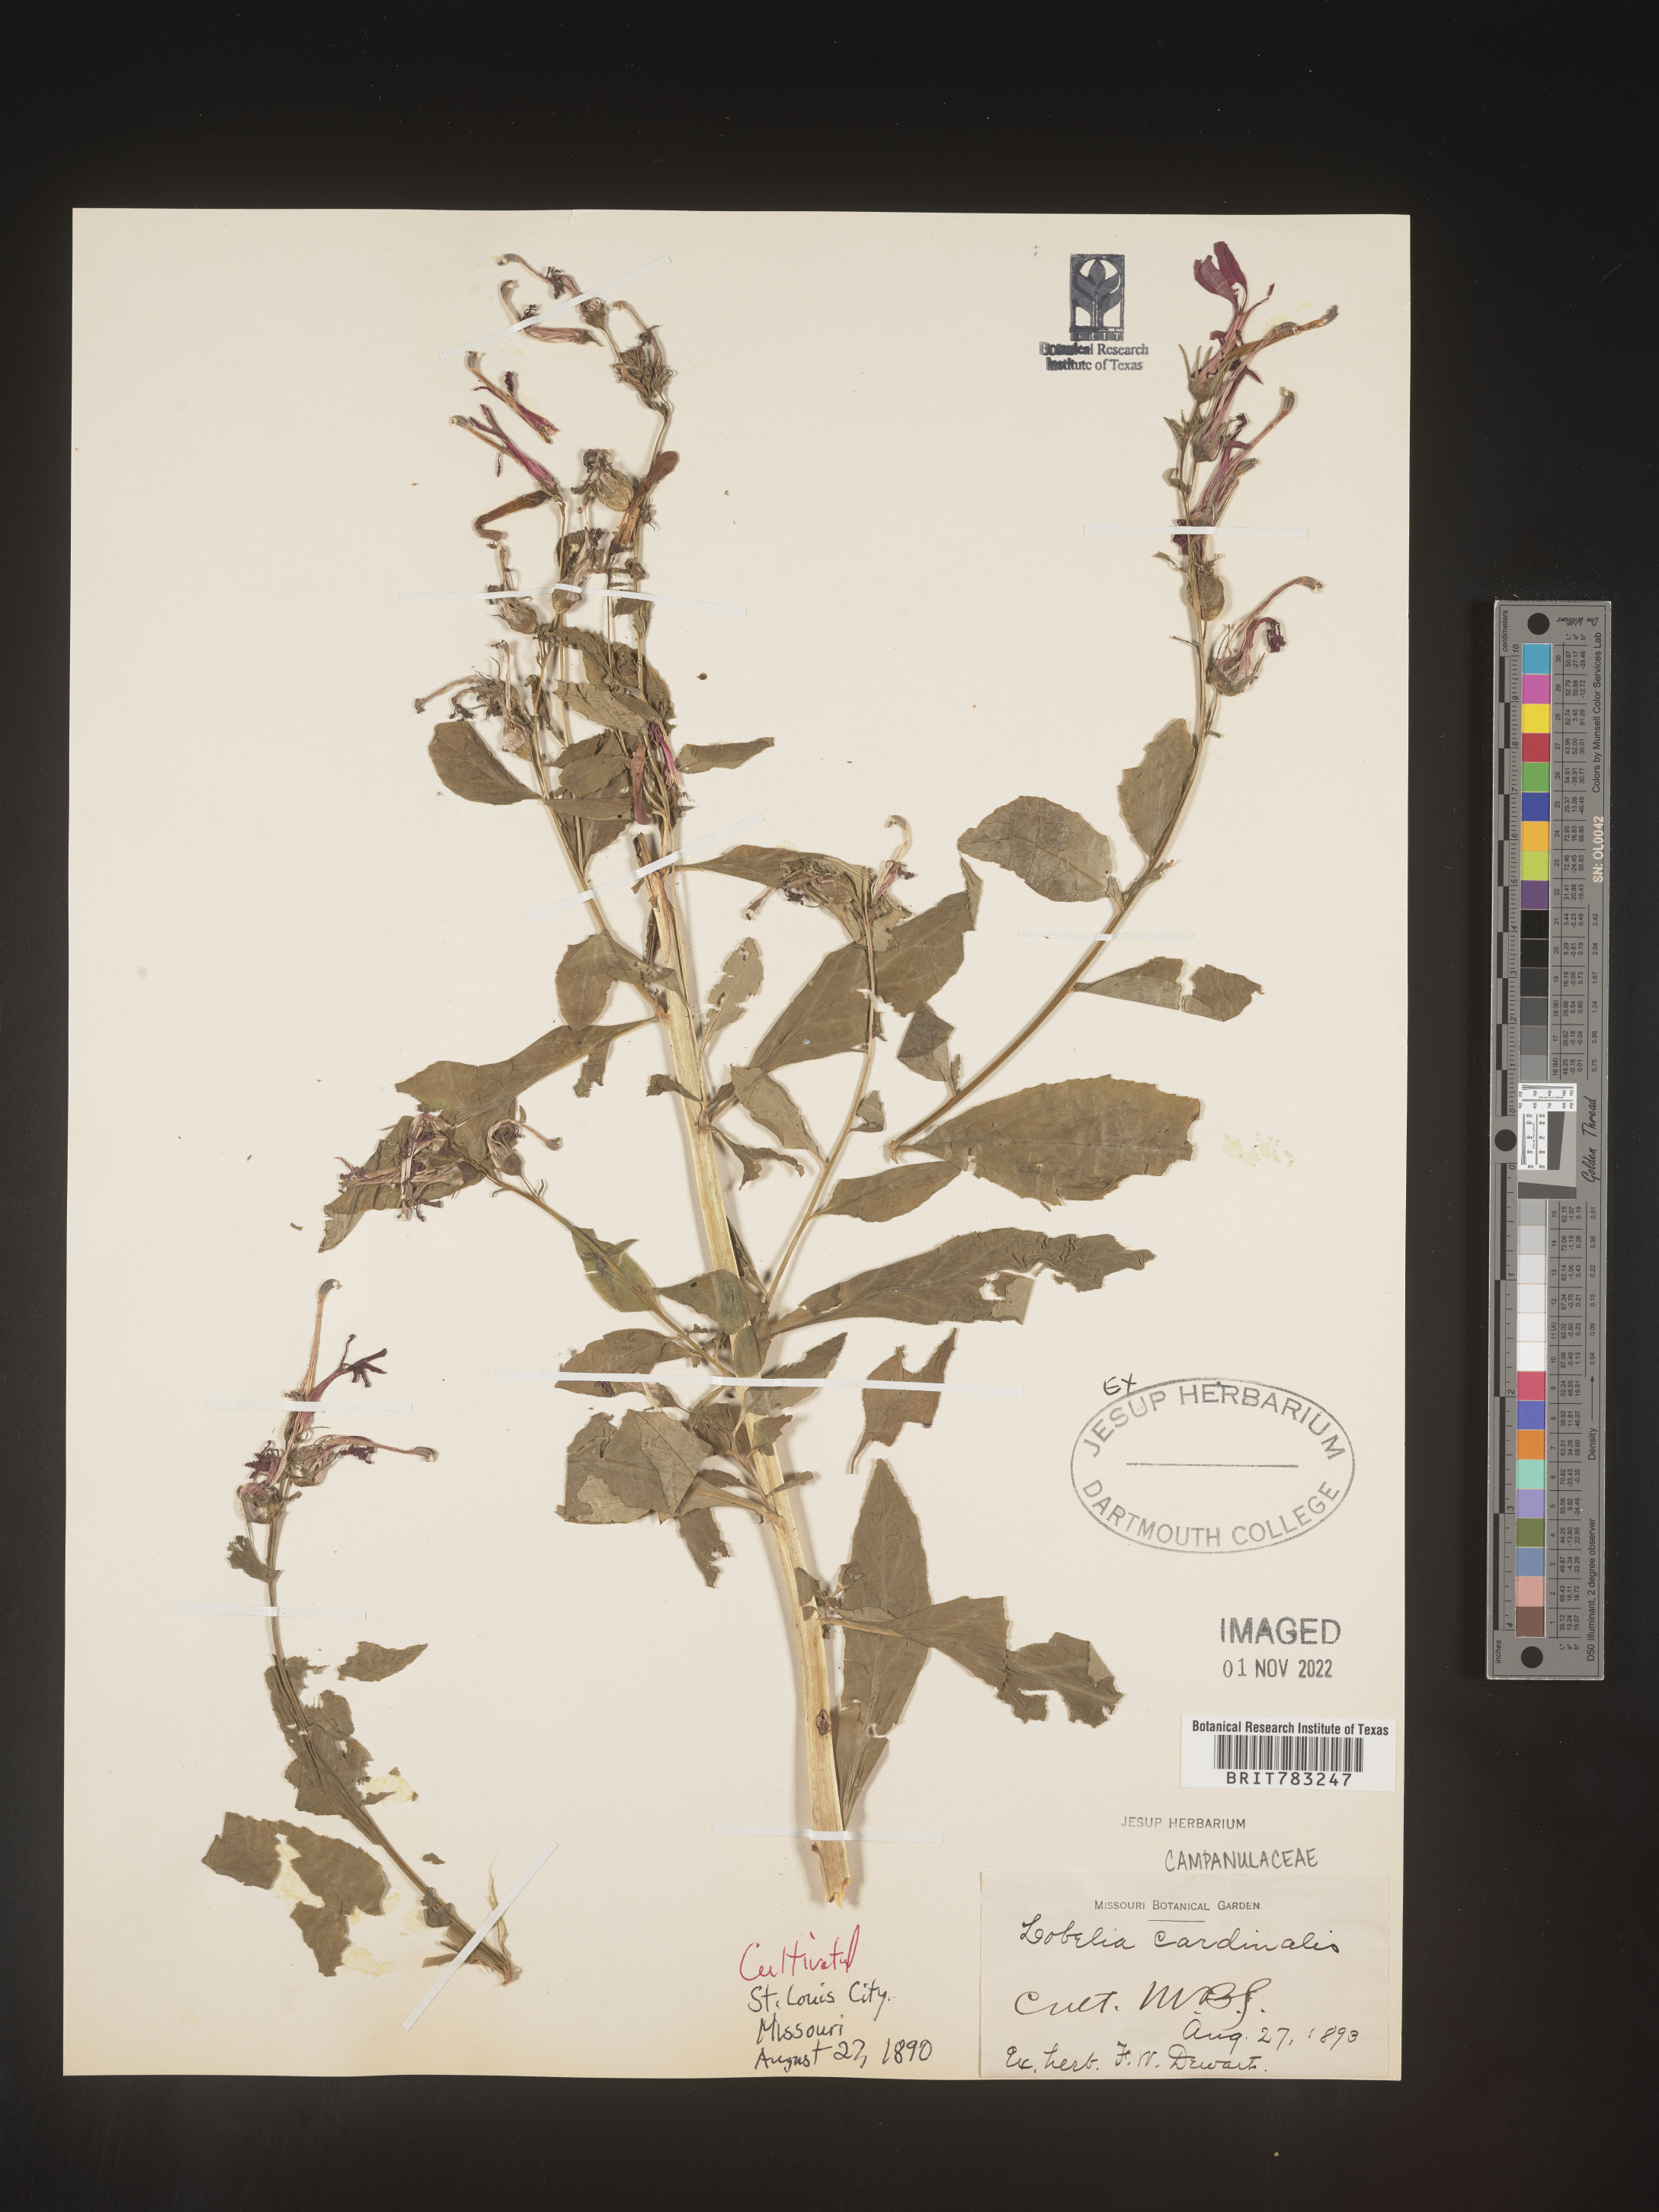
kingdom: Plantae
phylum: Tracheophyta
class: Magnoliopsida
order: Asterales
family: Campanulaceae
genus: Lobelia
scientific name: Lobelia
